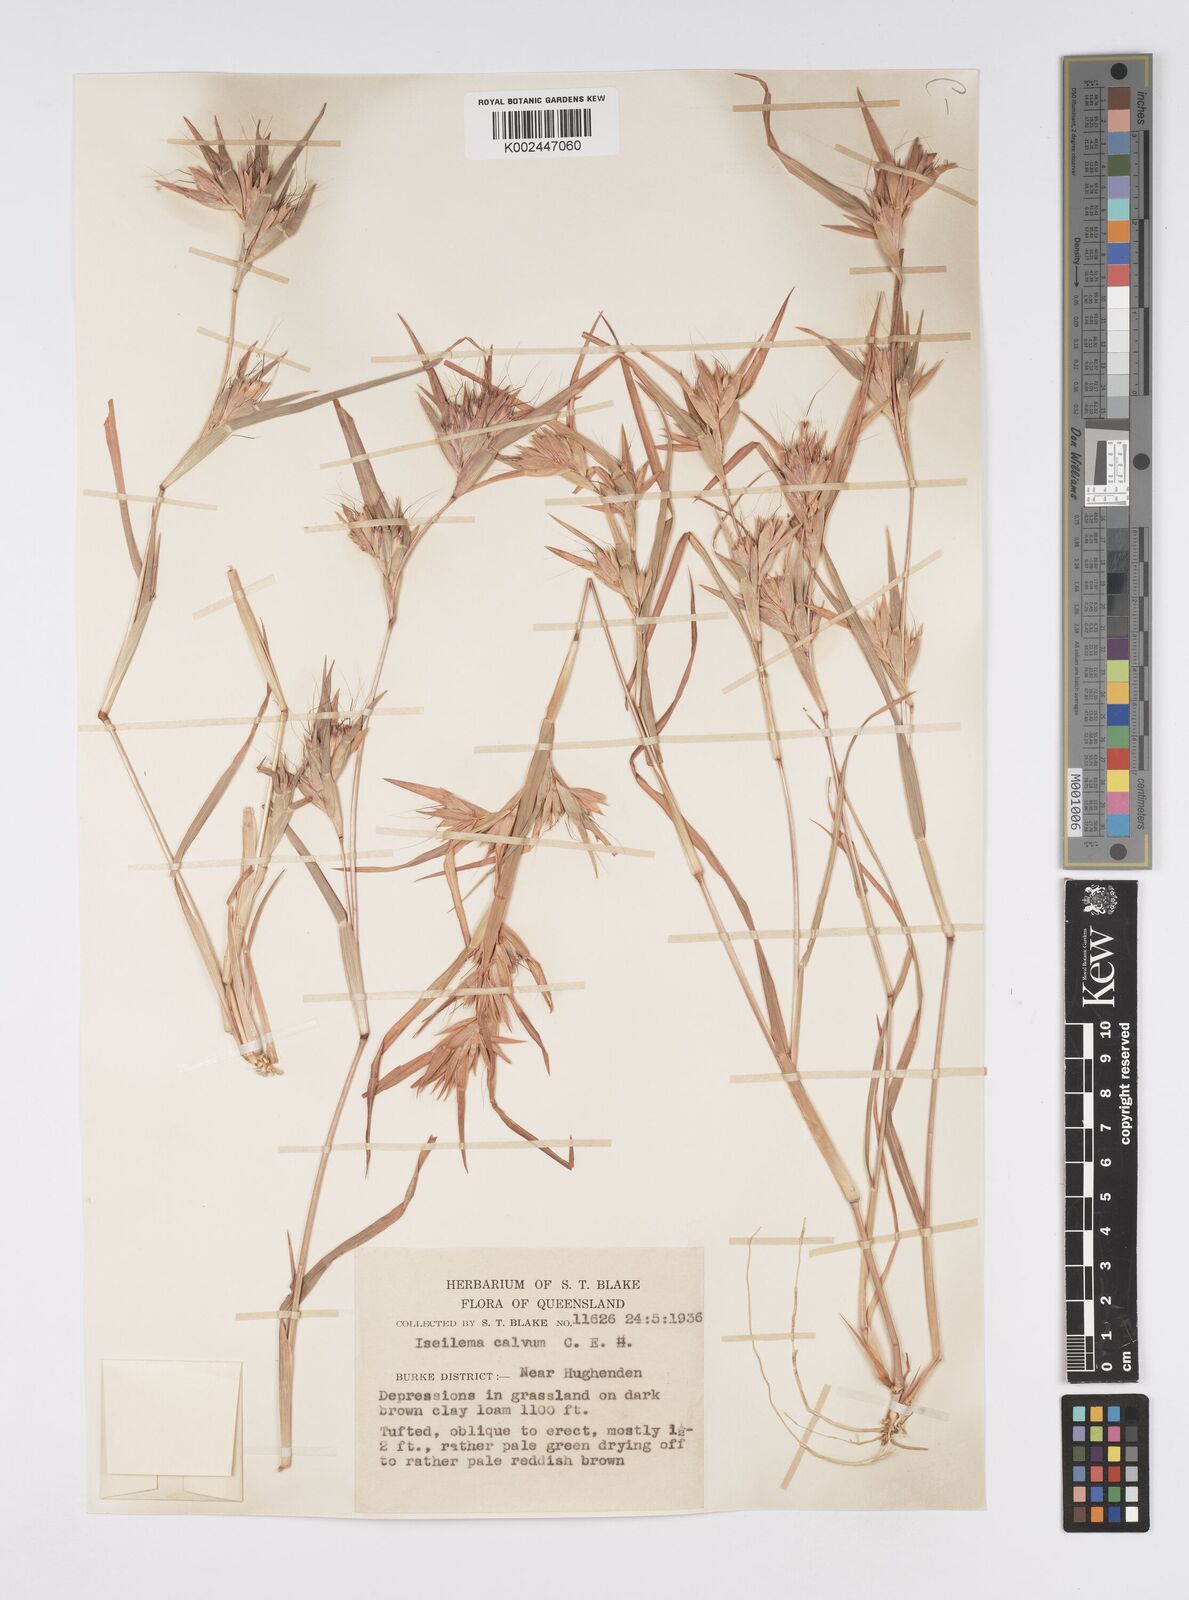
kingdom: Plantae
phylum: Tracheophyta
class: Liliopsida
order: Poales
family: Poaceae
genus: Iseilema
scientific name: Iseilema calvum
